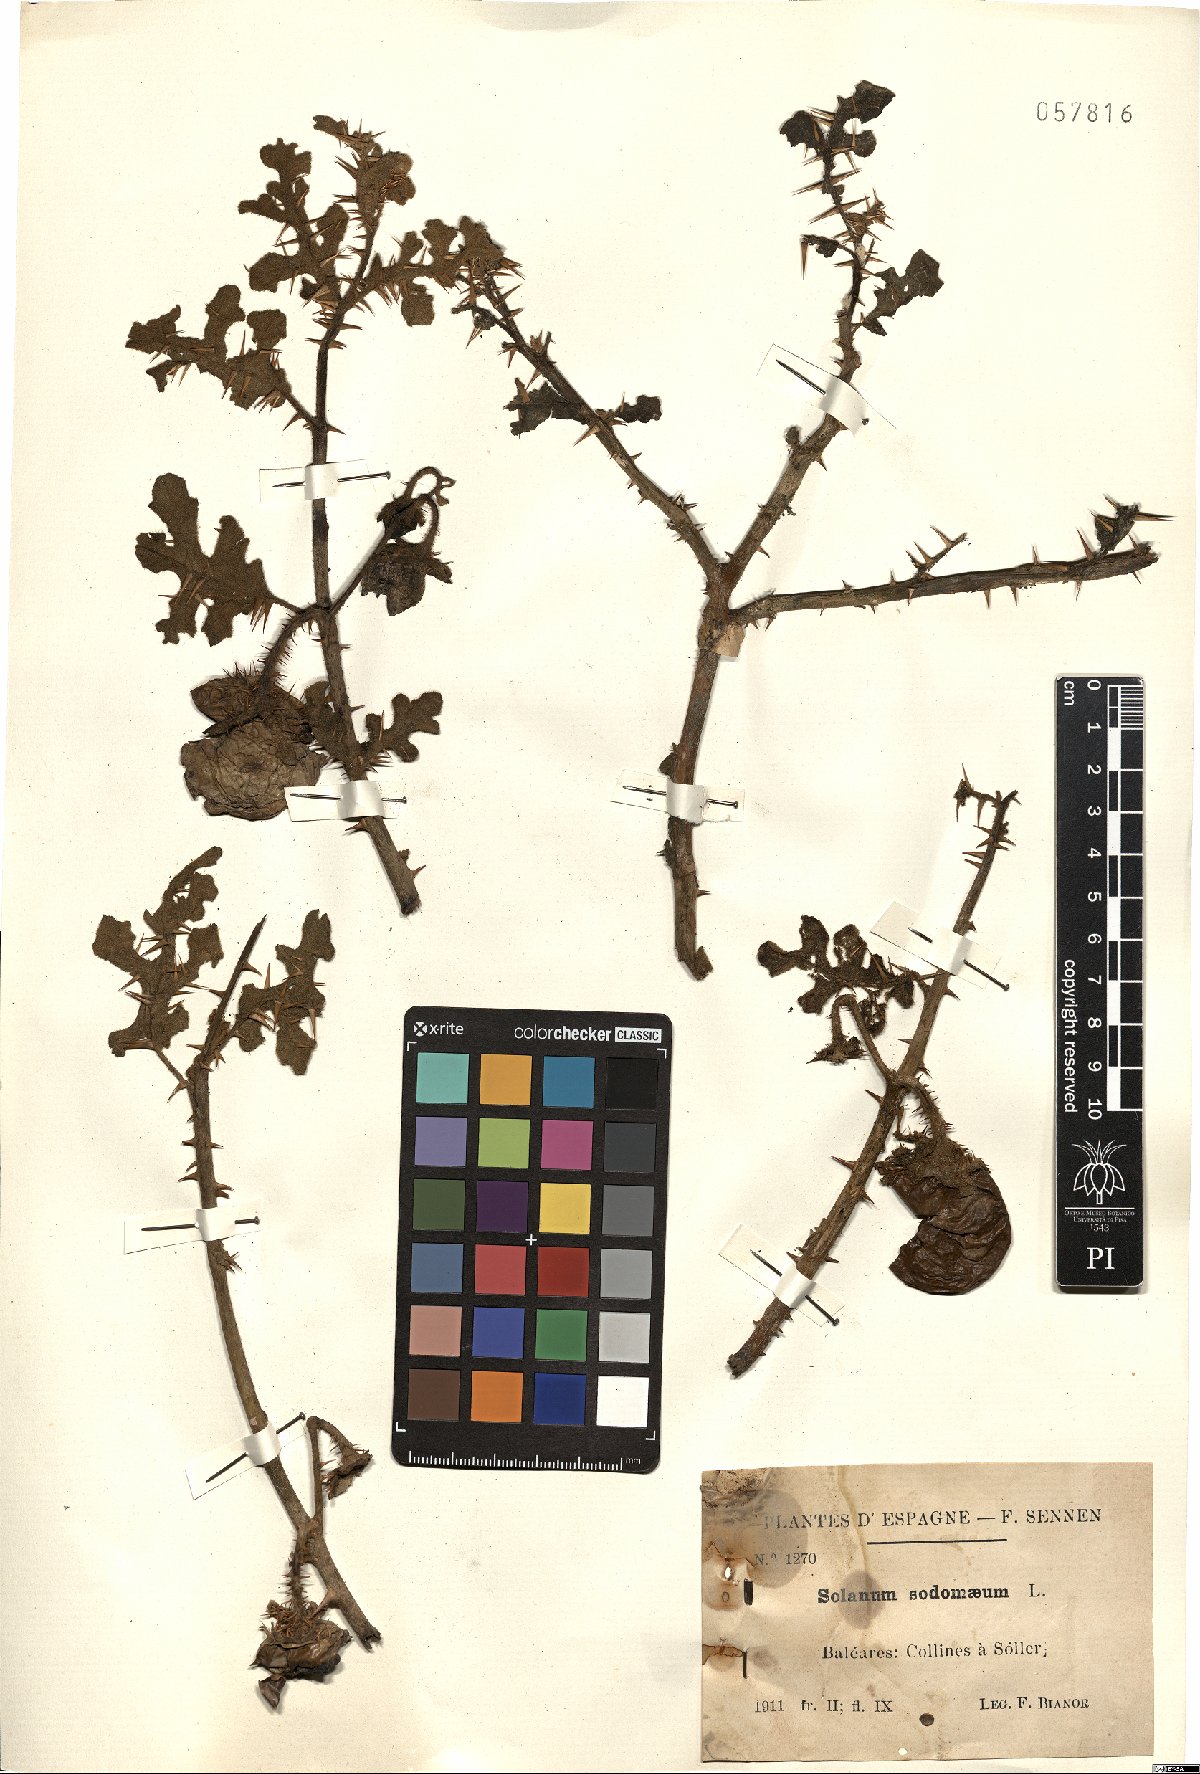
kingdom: Plantae
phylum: Tracheophyta
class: Magnoliopsida
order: Solanales
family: Solanaceae
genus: Solanum
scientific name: Solanum anguivi
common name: Forest bitterberry
